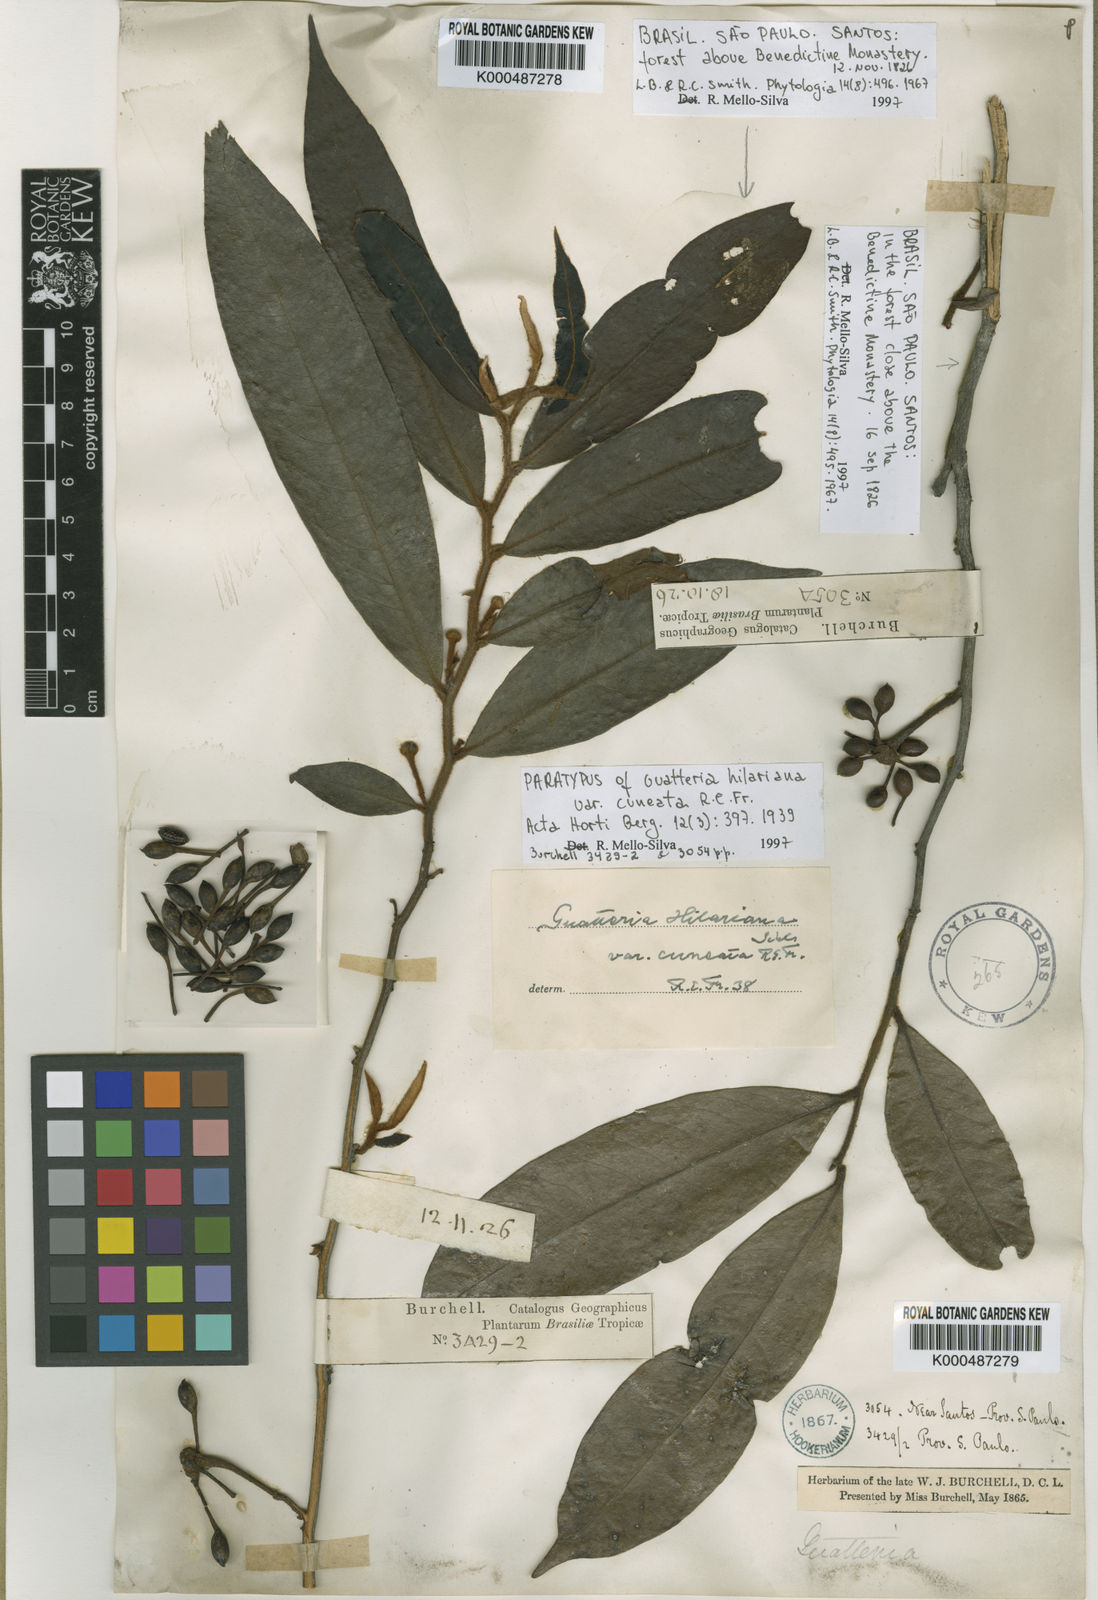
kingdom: Plantae
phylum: Tracheophyta
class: Magnoliopsida
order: Magnoliales
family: Annonaceae
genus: Guatteria
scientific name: Guatteria australis
